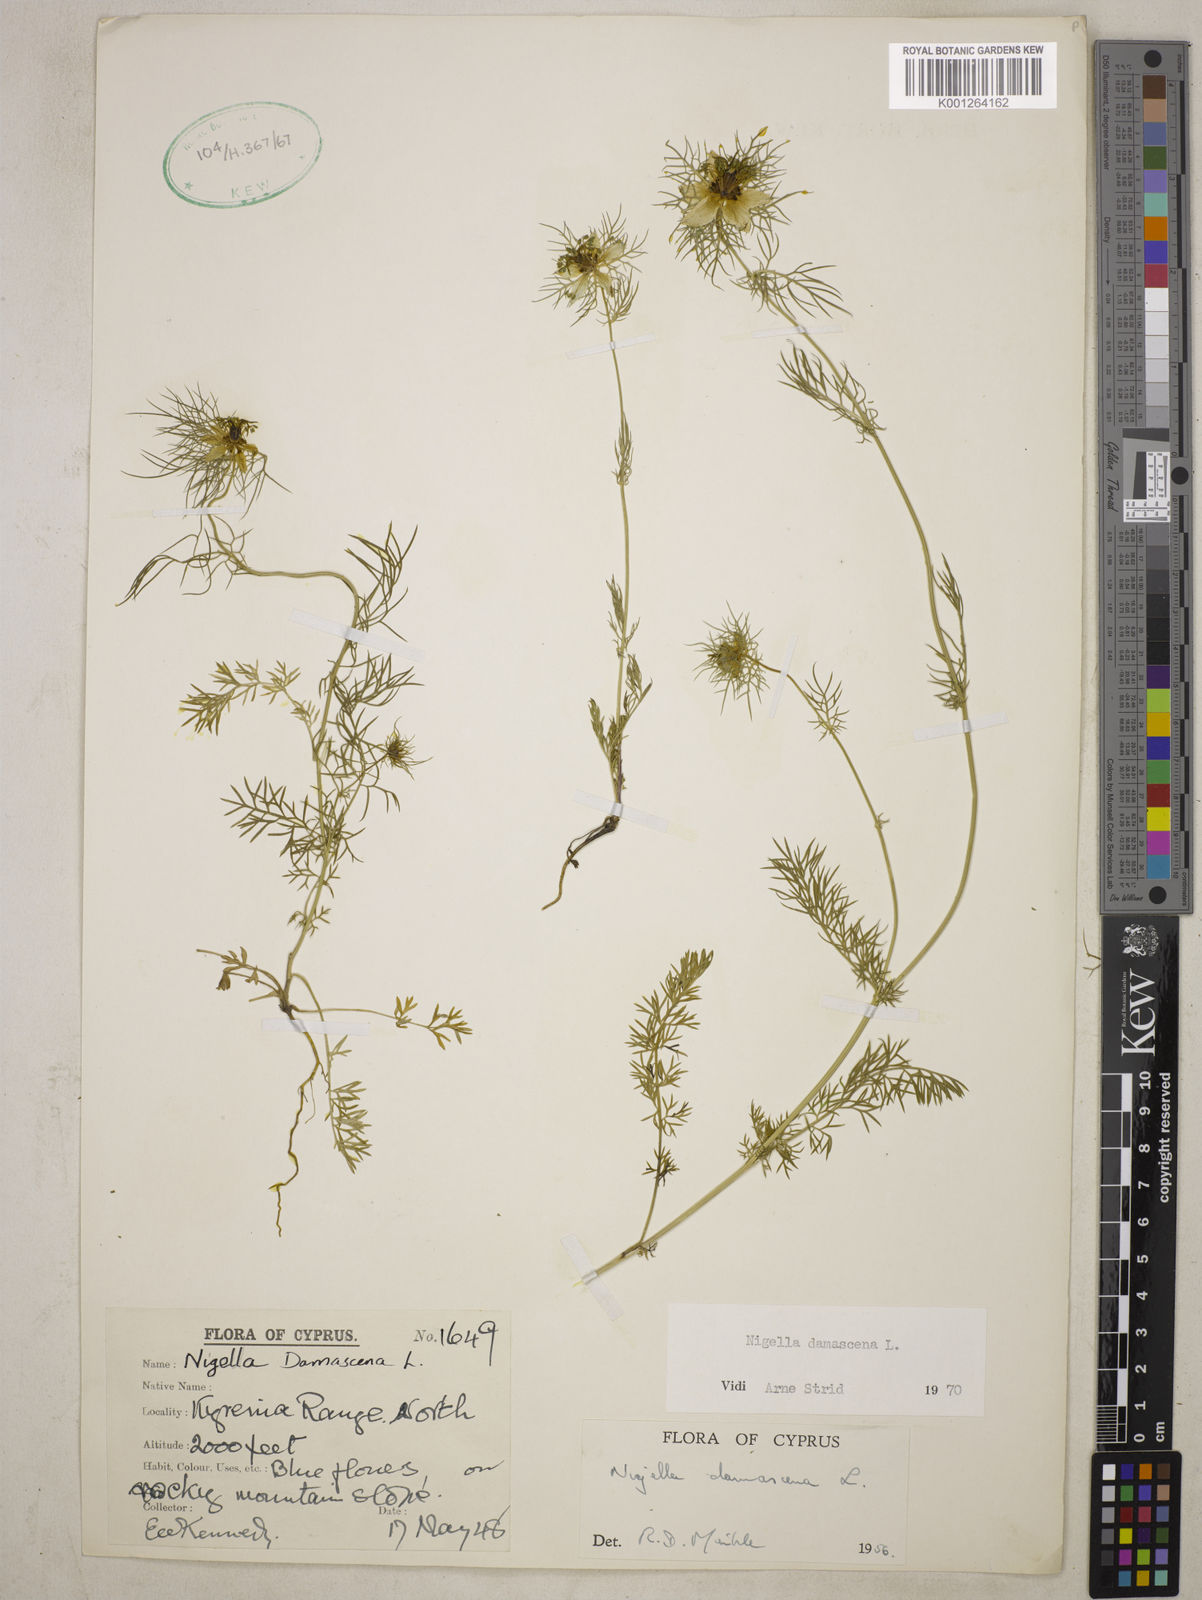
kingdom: Plantae
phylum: Tracheophyta
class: Magnoliopsida
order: Ranunculales
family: Ranunculaceae
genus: Nigella
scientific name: Nigella damascena
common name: Love-in-a-mist
